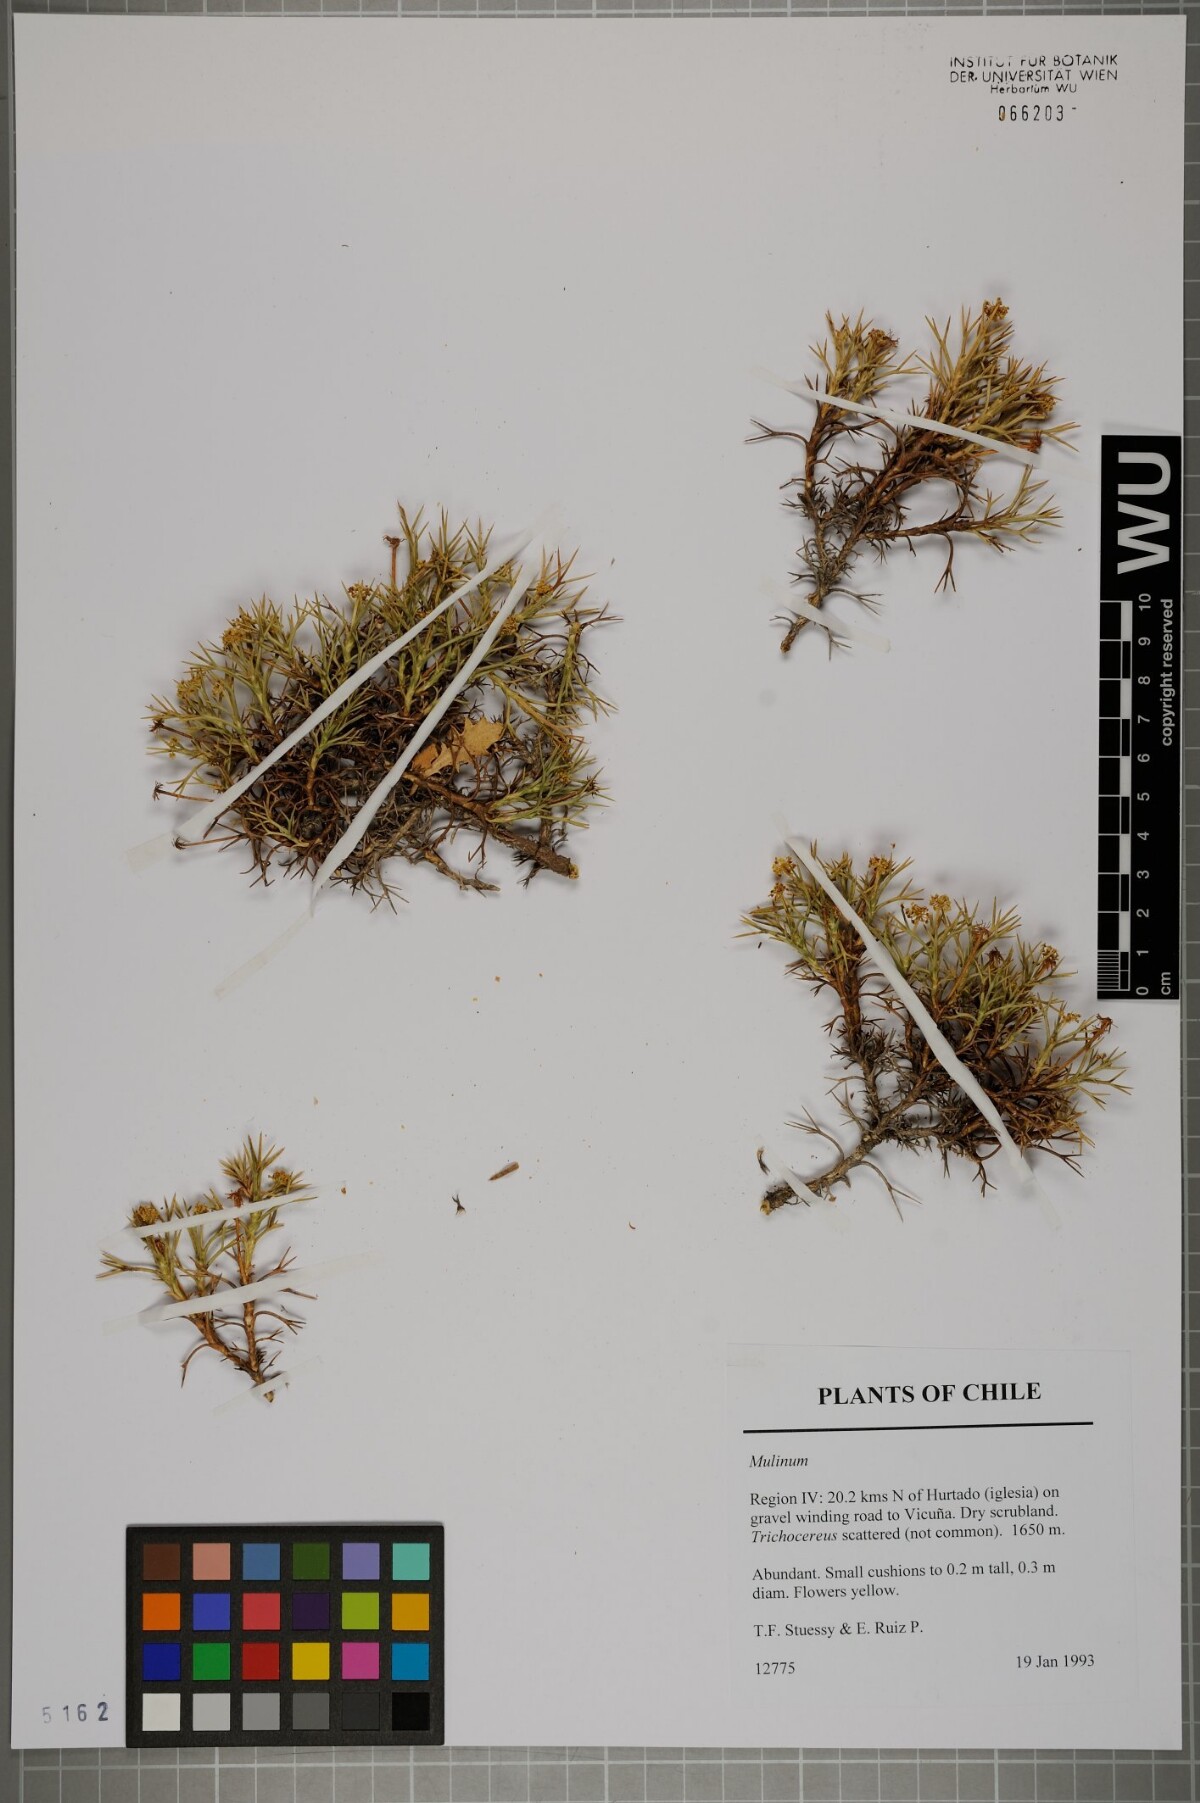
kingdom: Plantae
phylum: Tracheophyta
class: Magnoliopsida
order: Apiales
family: Apiaceae
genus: Azorella
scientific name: Azorella
